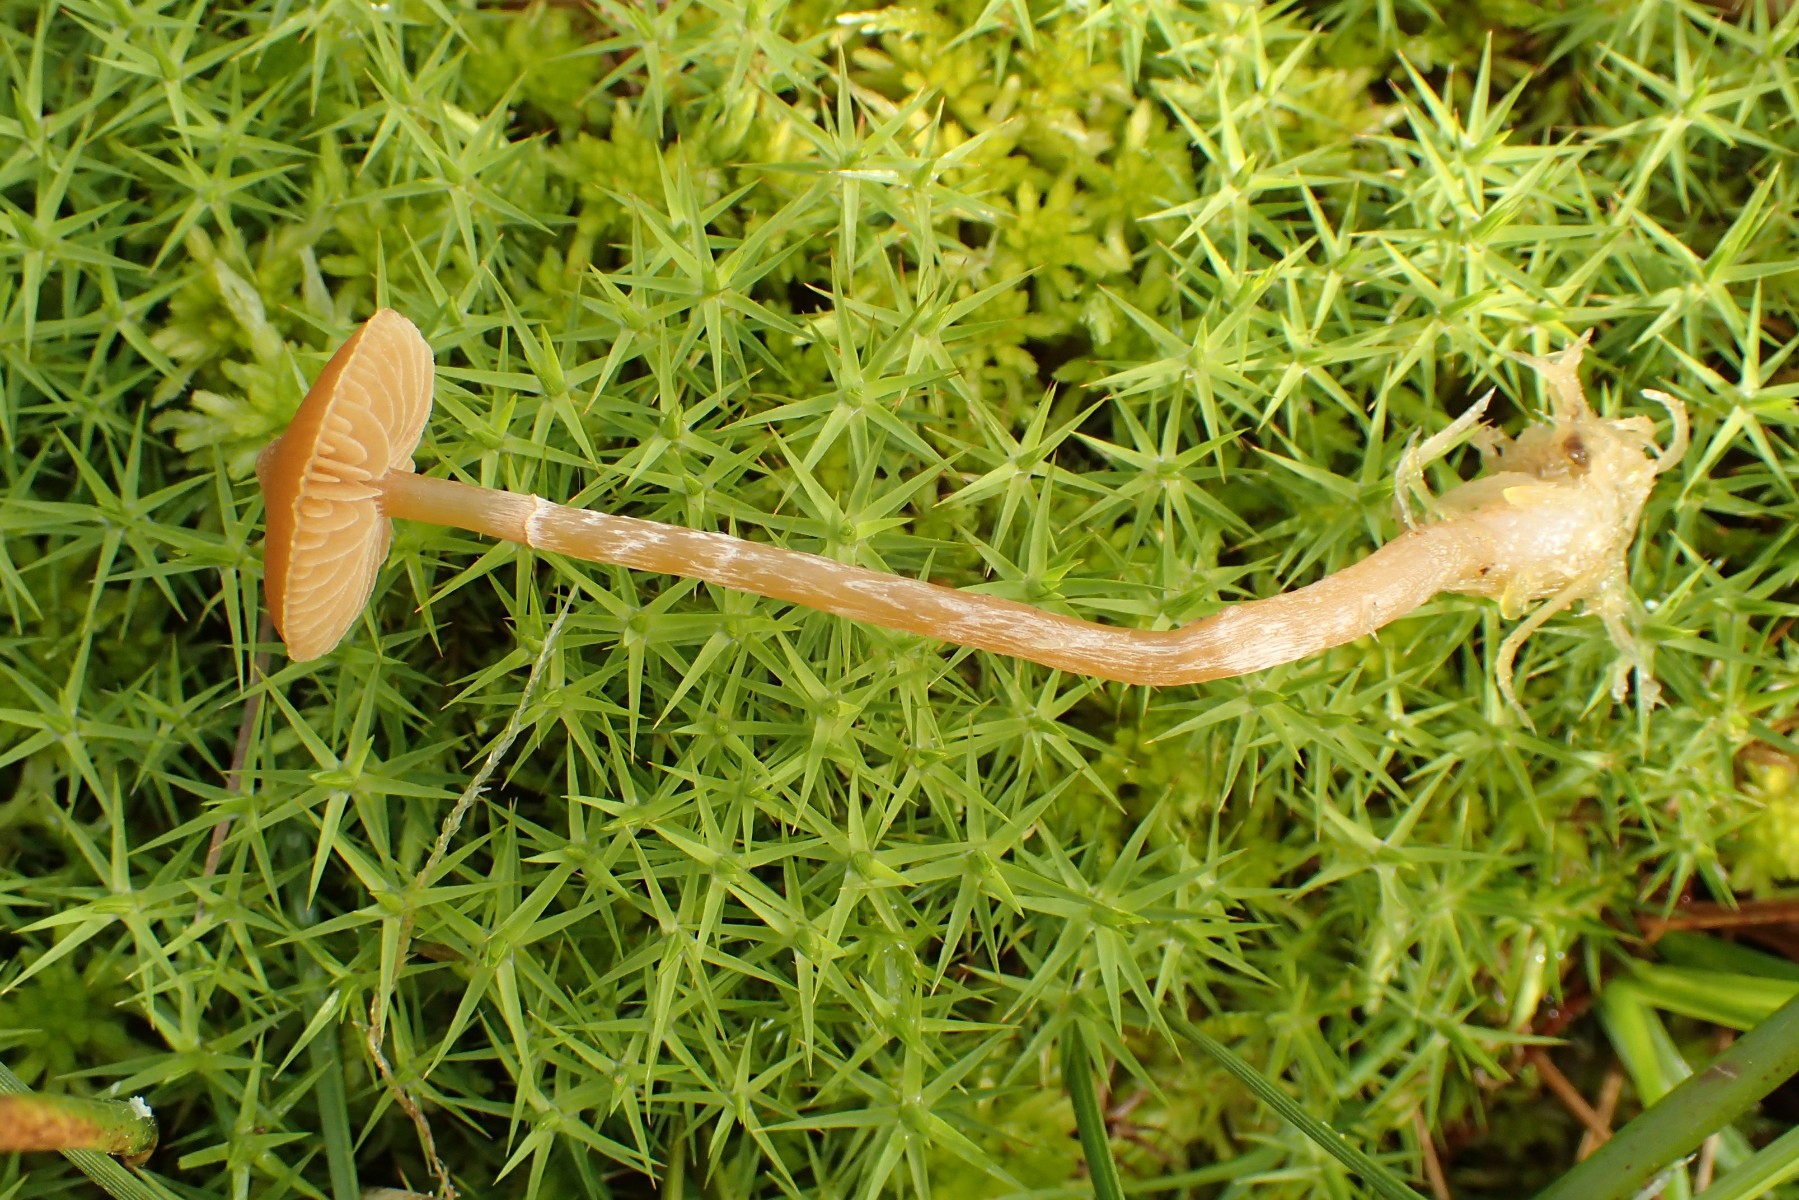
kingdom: Fungi
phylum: Basidiomycota
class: Agaricomycetes
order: Agaricales
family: Hymenogastraceae
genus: Galerina
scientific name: Galerina paludosa
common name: mose-hjelmhat
